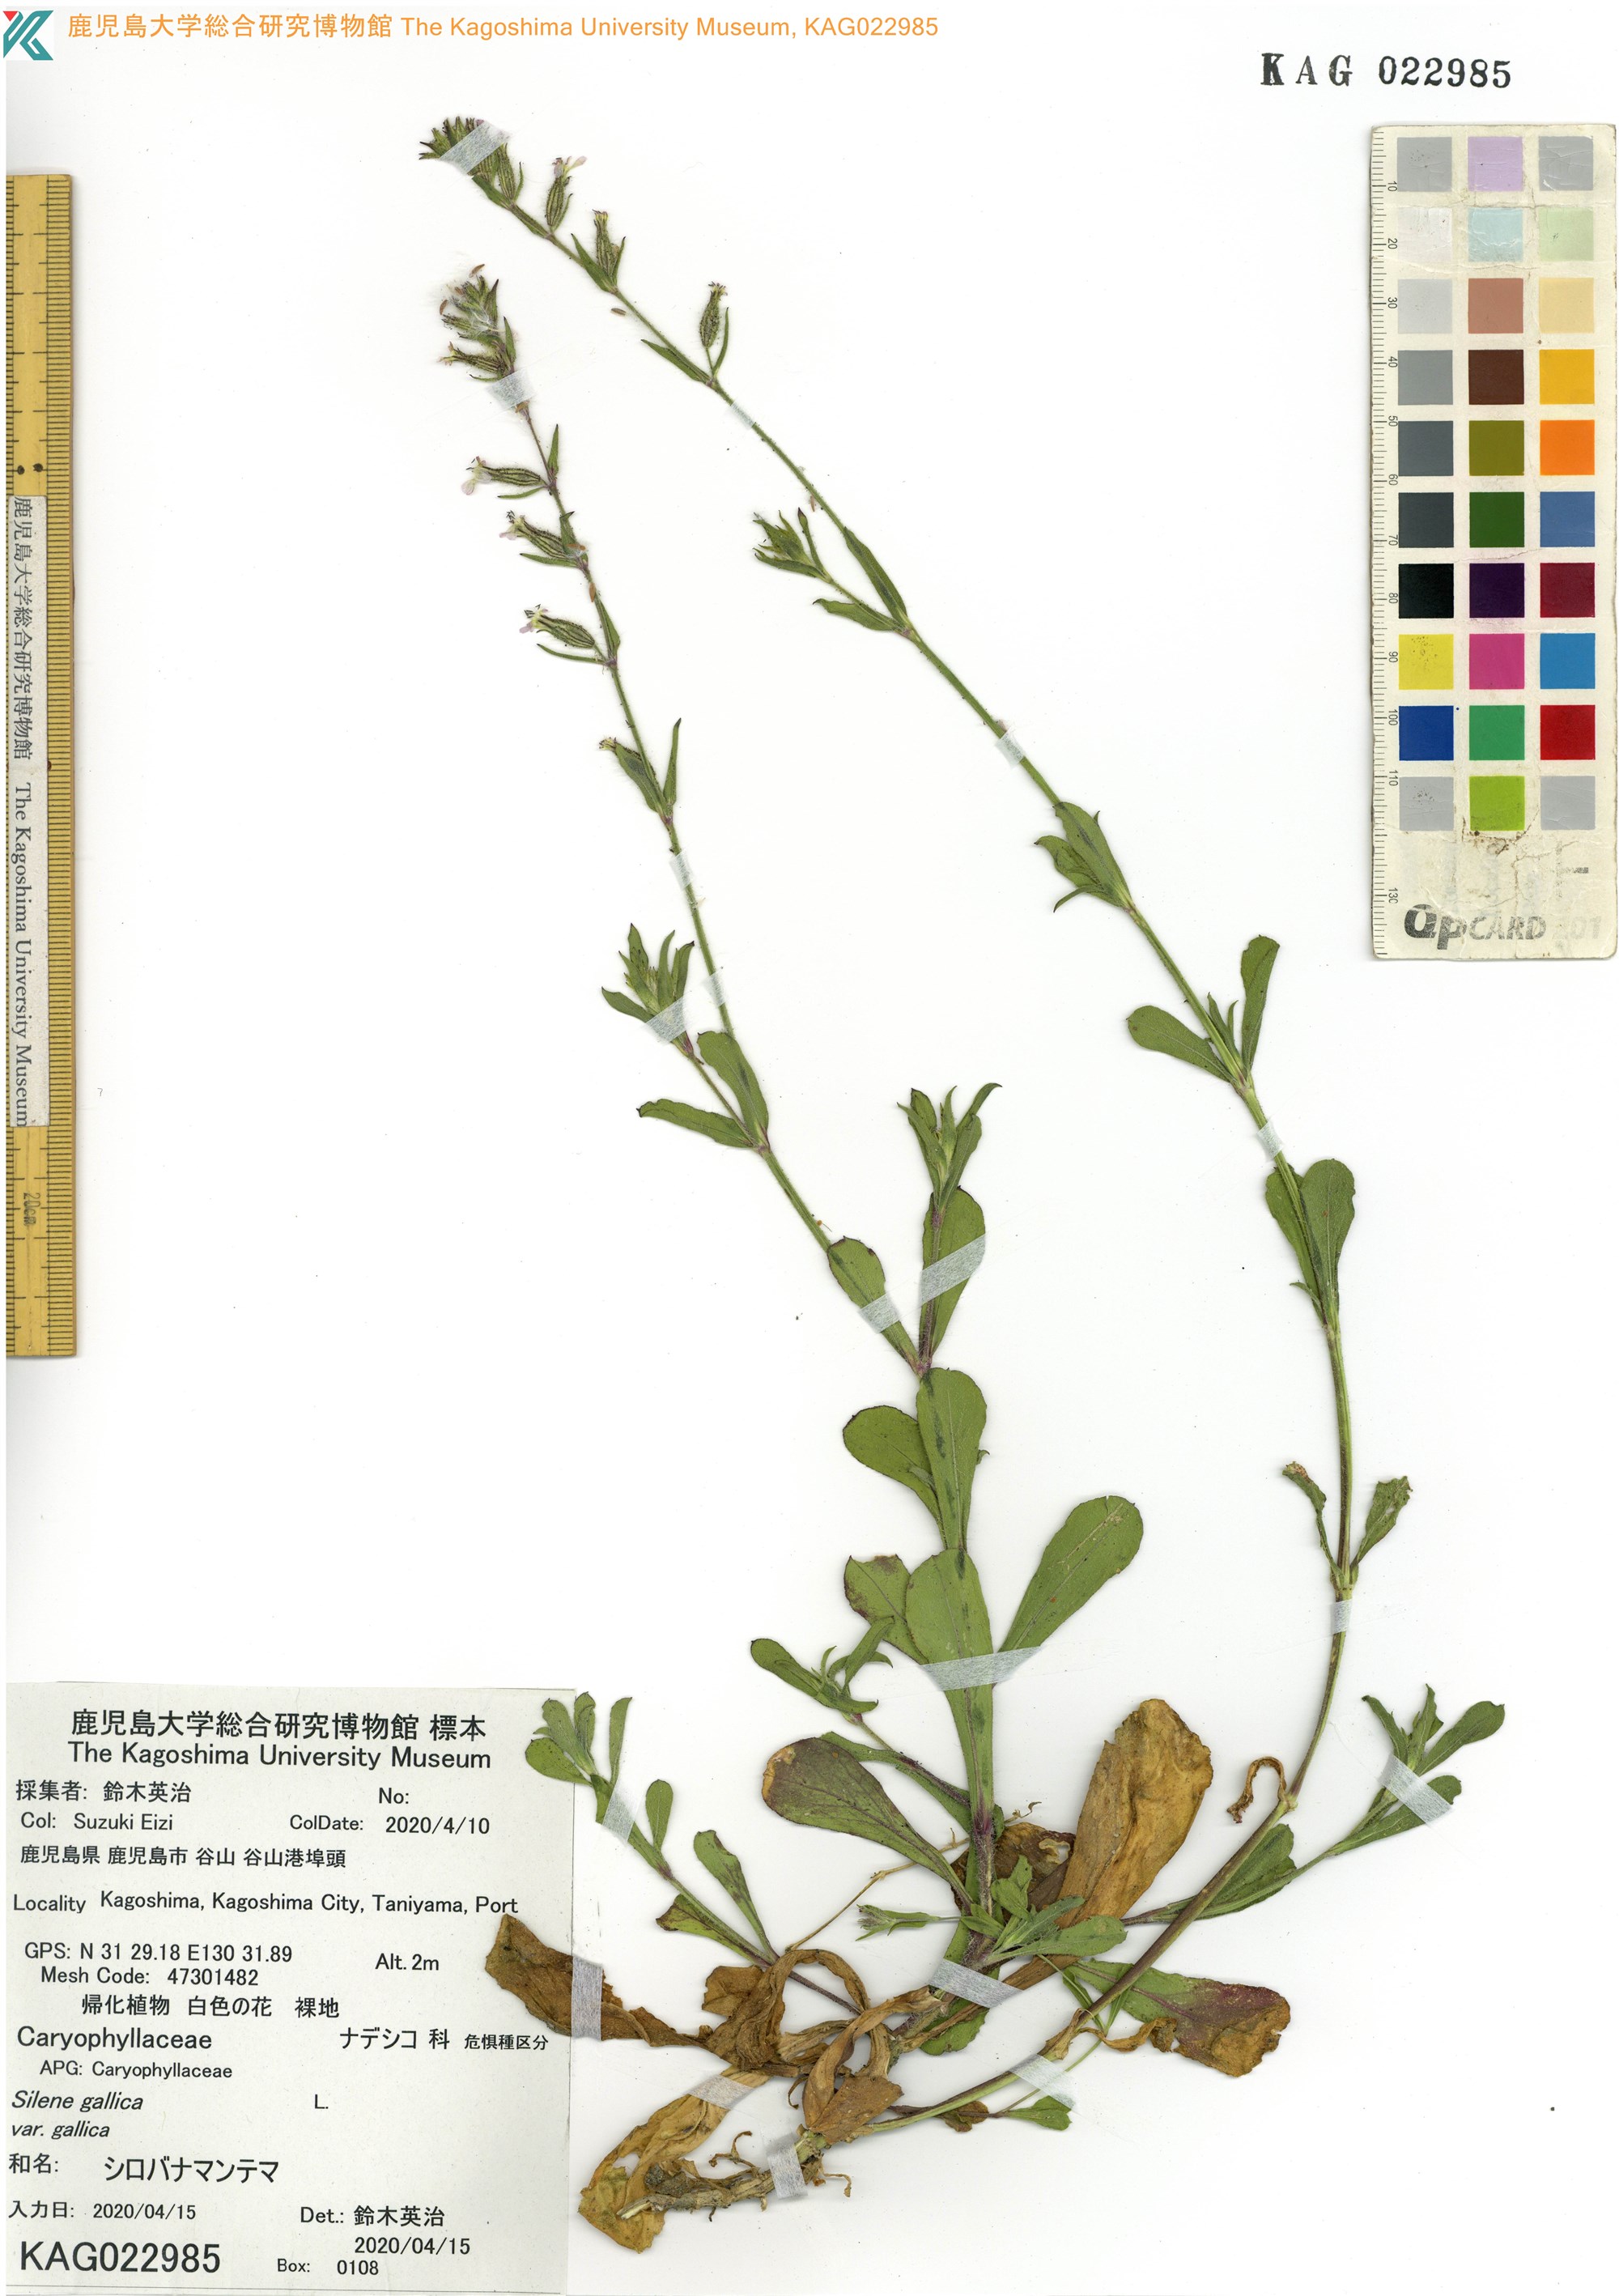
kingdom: Plantae
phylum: Tracheophyta
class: Magnoliopsida
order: Caryophyllales
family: Caryophyllaceae
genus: Silene
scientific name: Silene gallica
